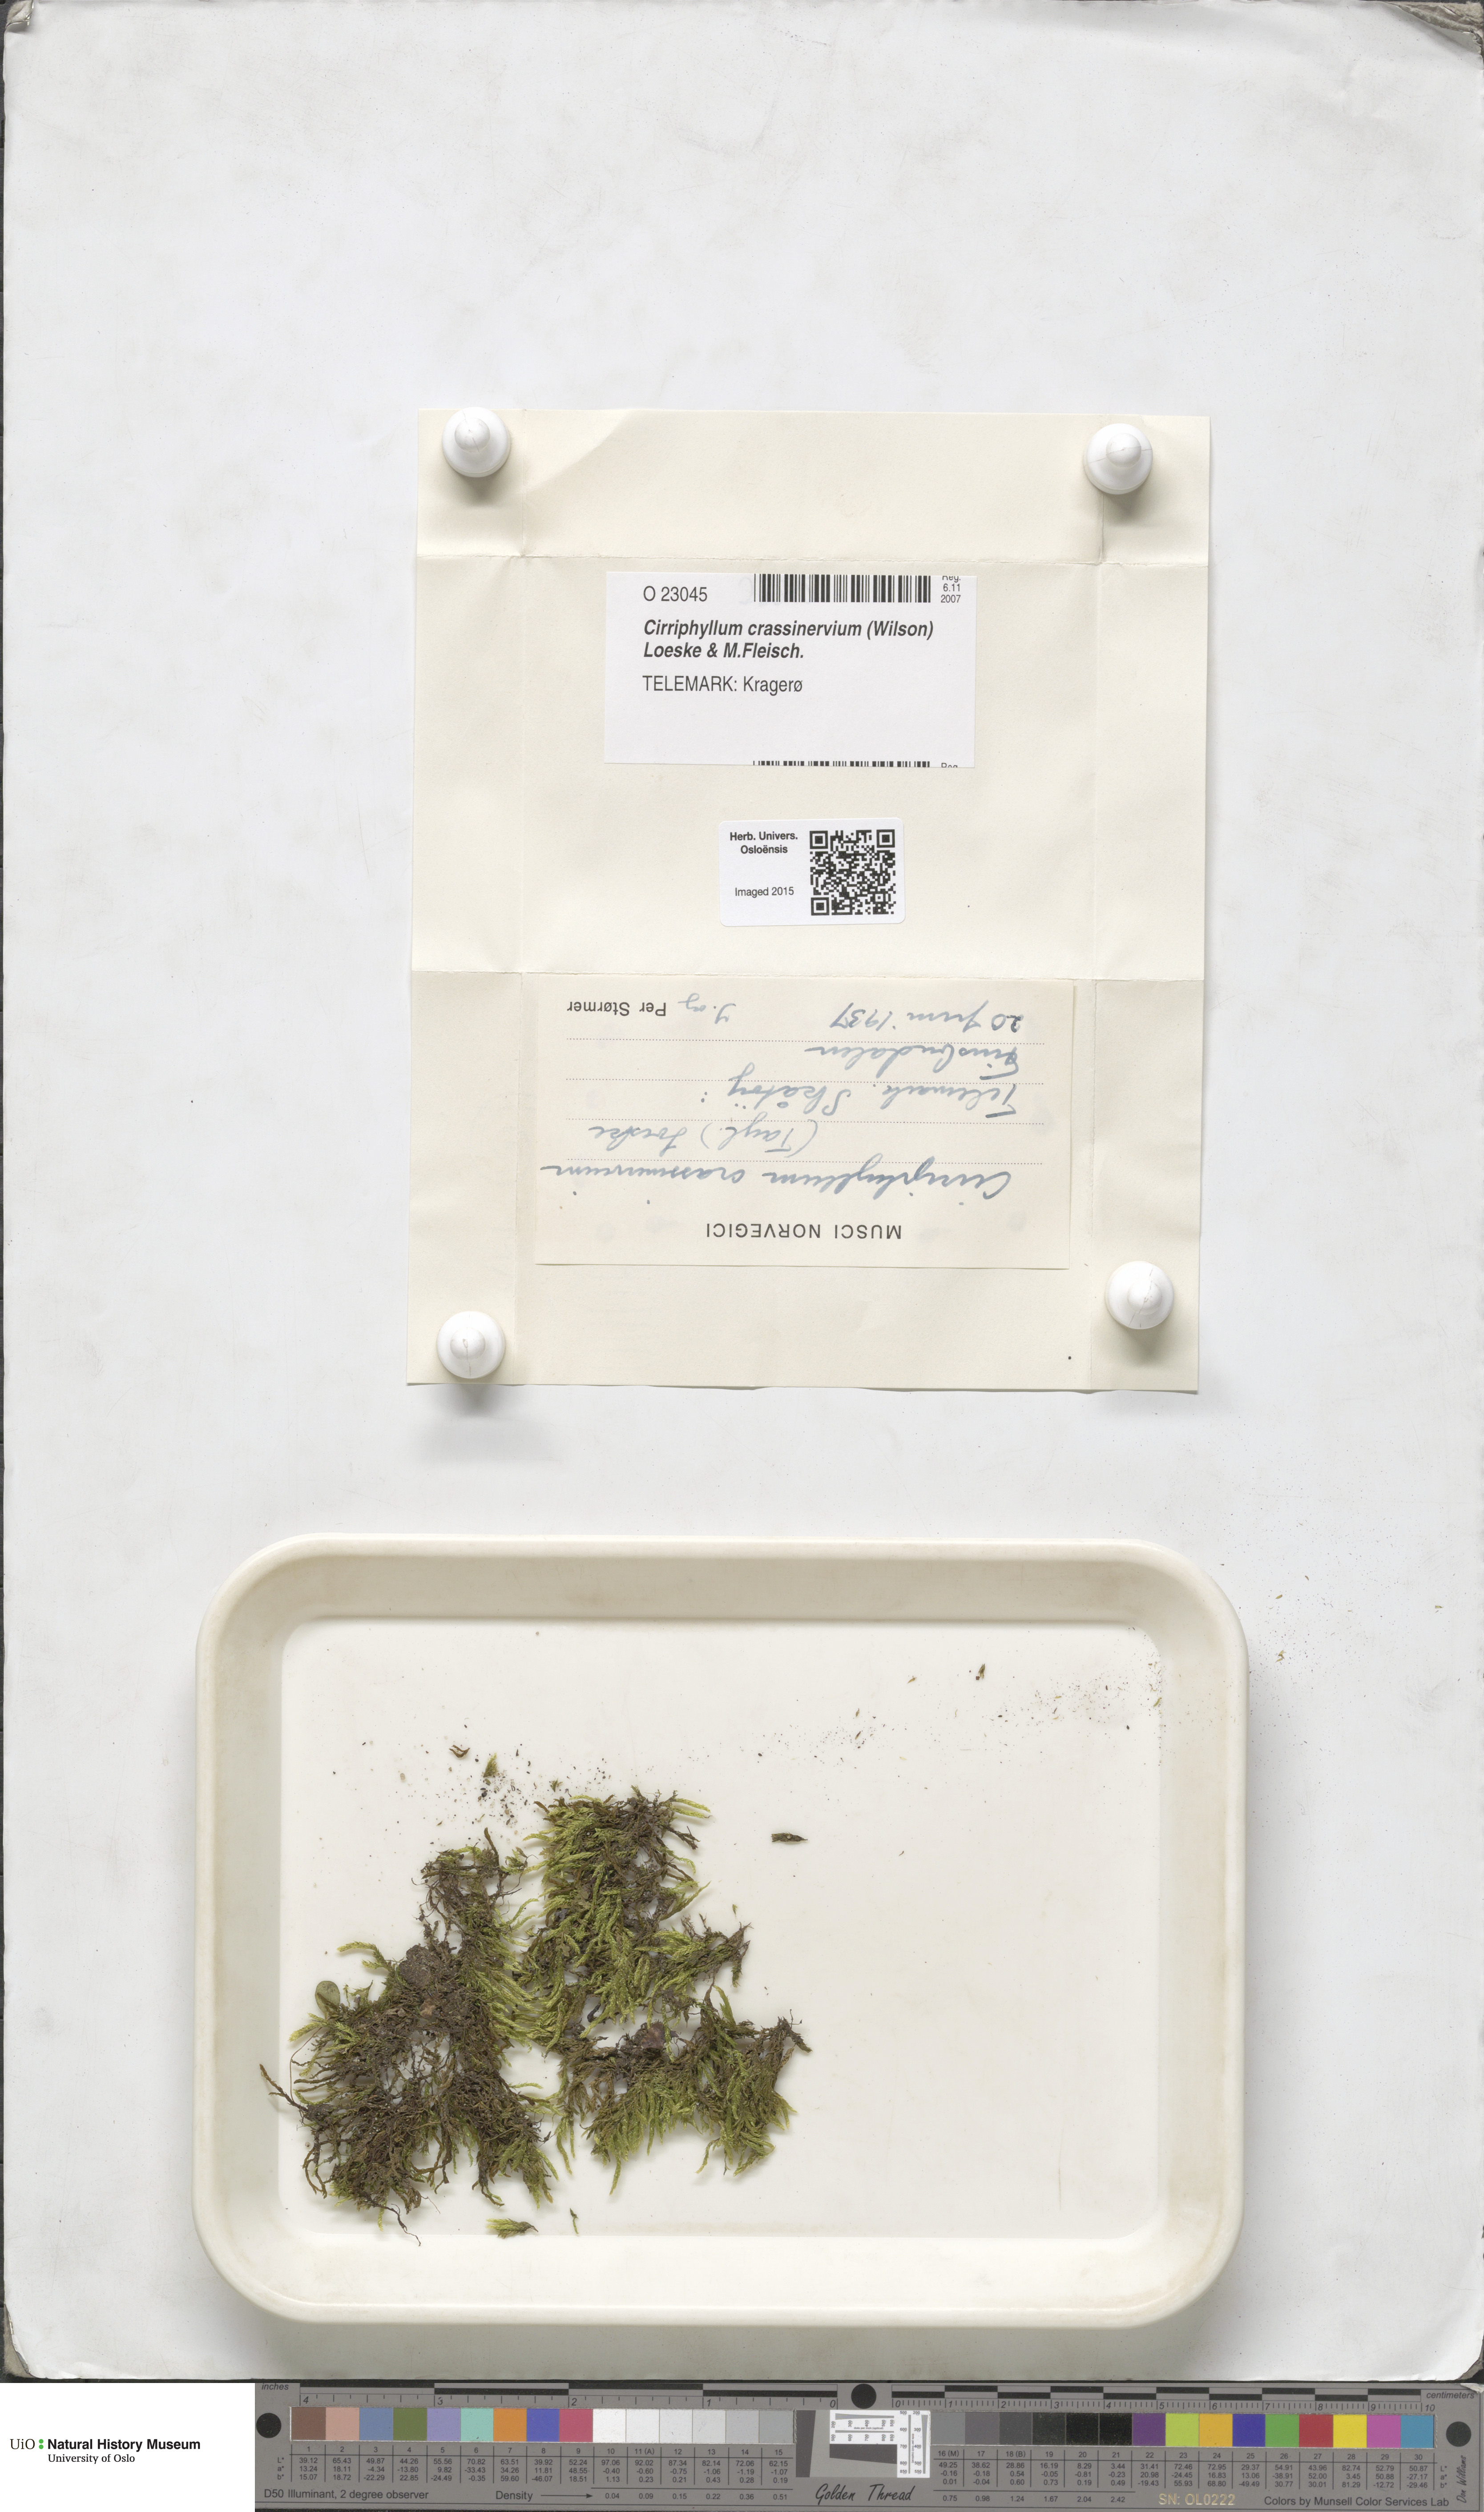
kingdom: Plantae
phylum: Bryophyta
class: Bryopsida
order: Hypnales
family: Brachytheciaceae
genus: Cirriphyllum
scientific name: Cirriphyllum crassinervium
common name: Beech feather-moss
